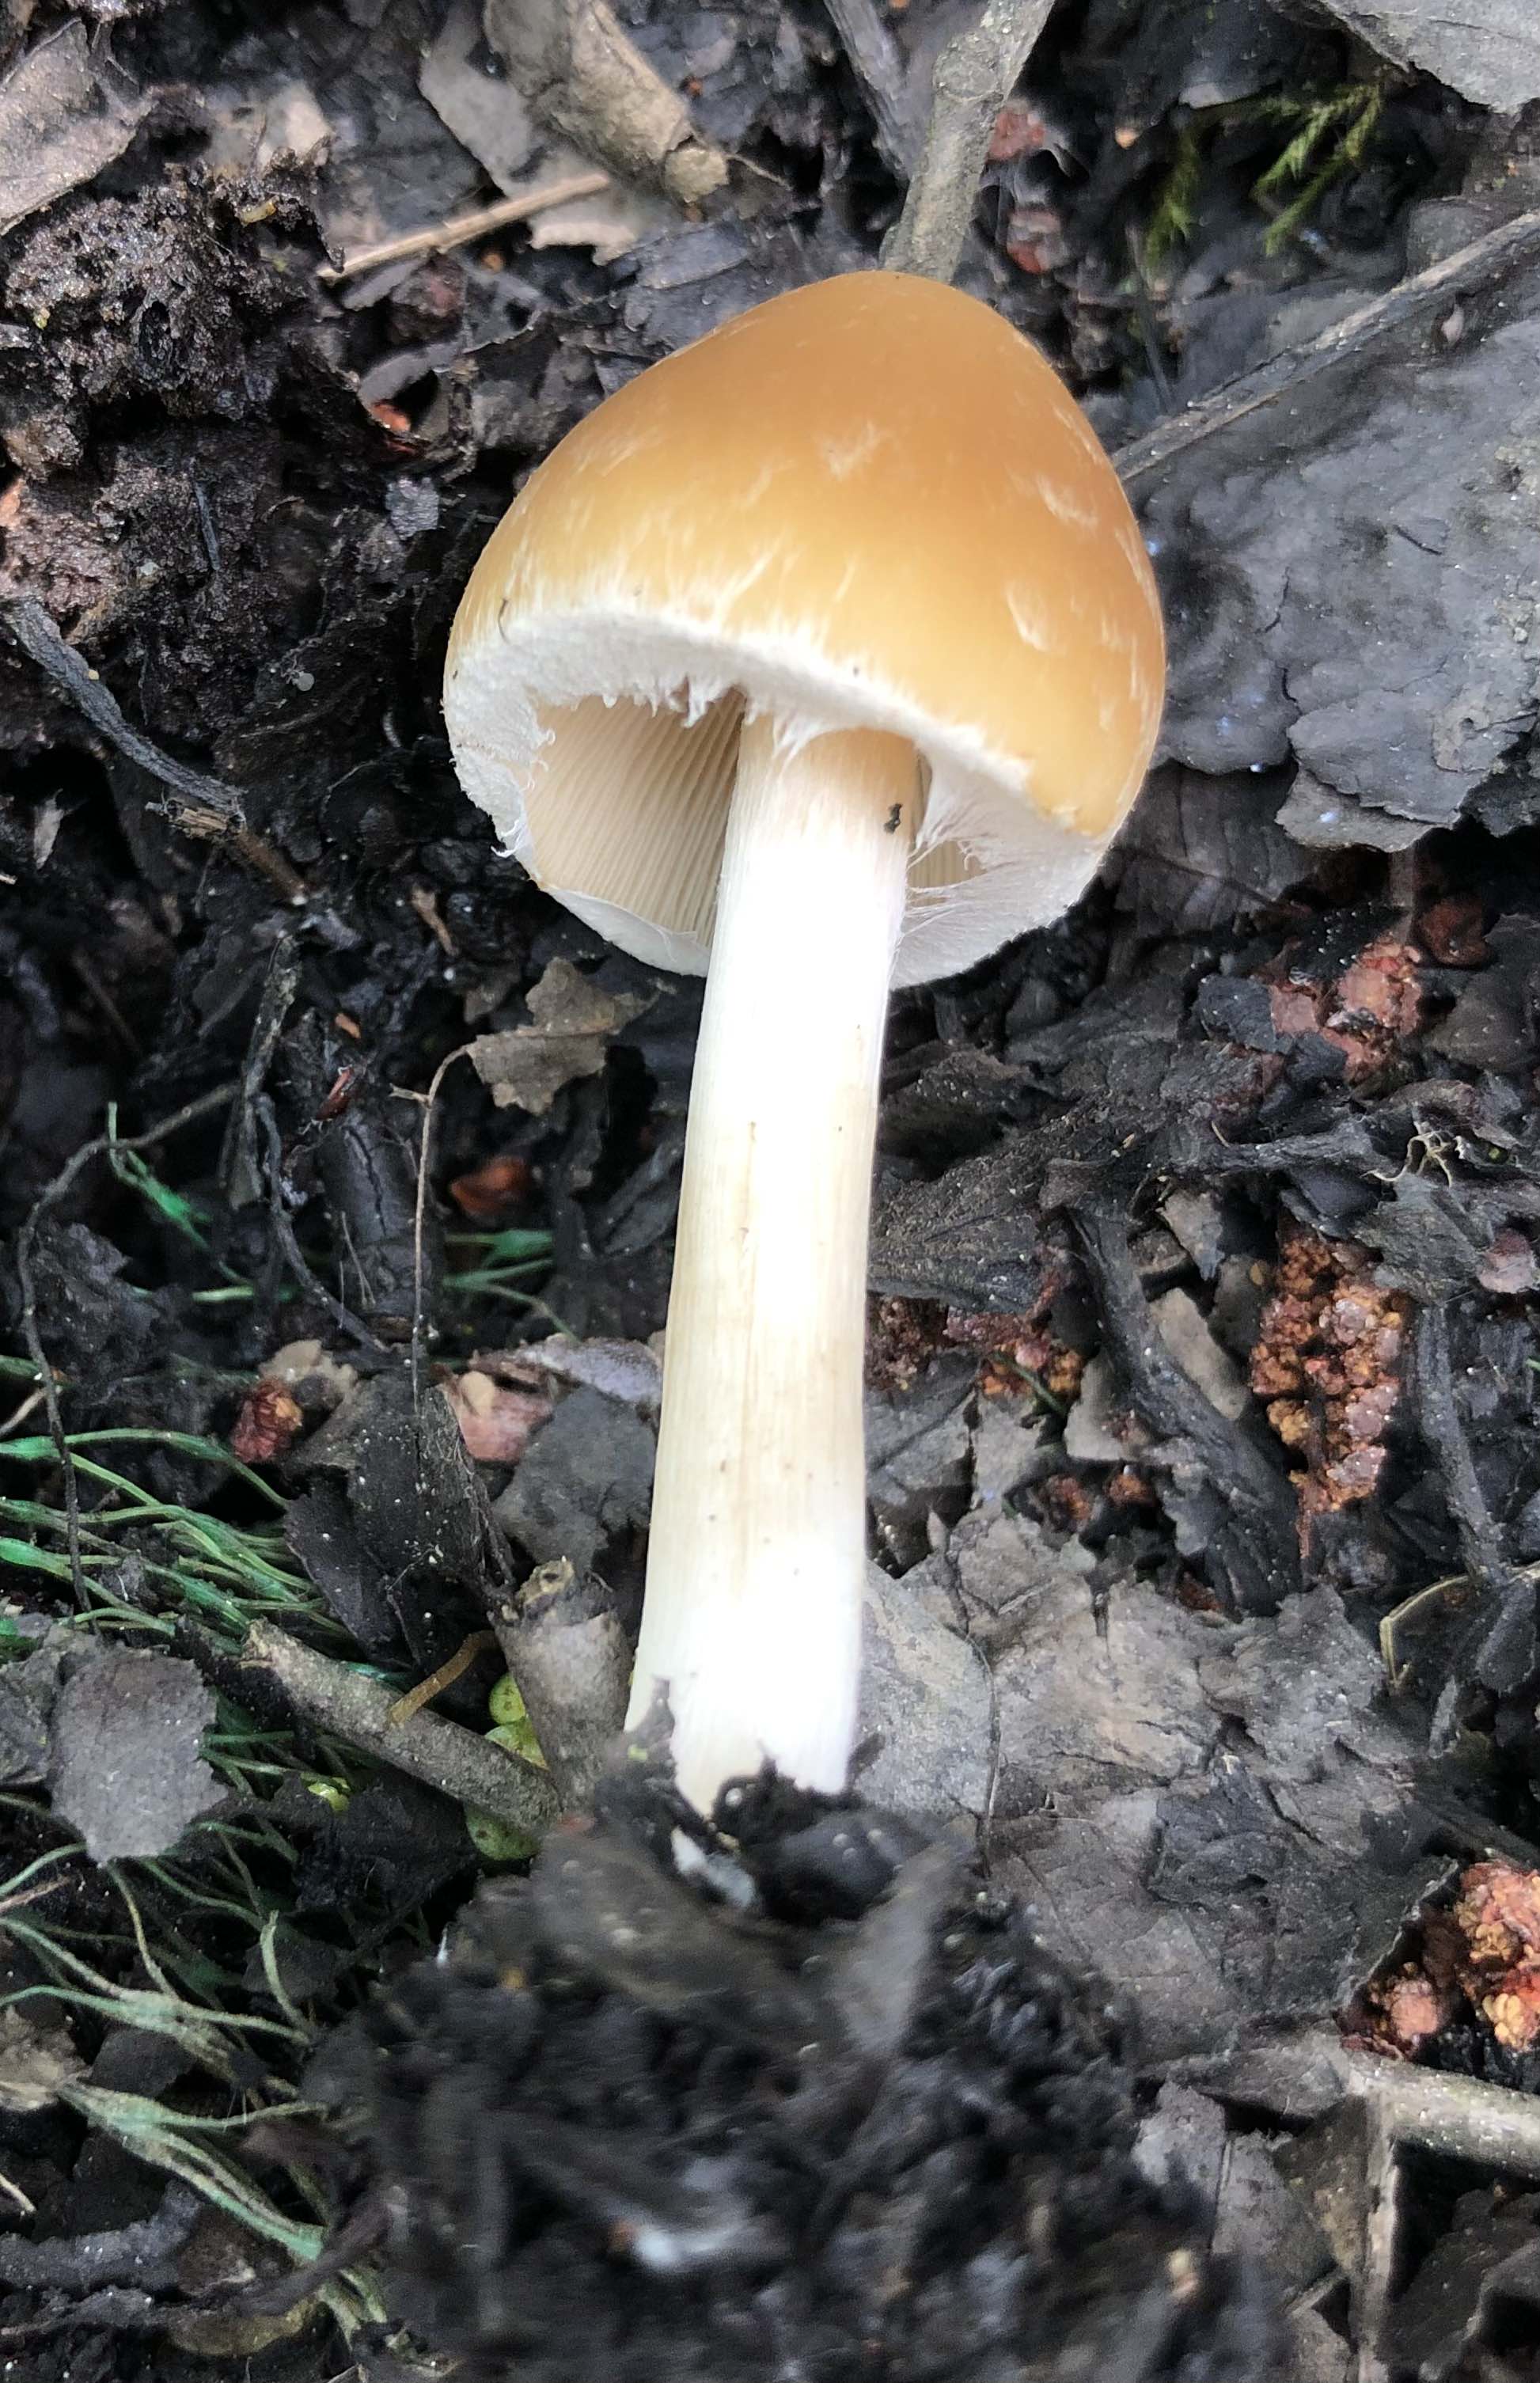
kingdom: Fungi
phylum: Basidiomycota
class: Agaricomycetes
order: Agaricales
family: Psathyrellaceae
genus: Candolleomyces
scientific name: Candolleomyces candolleanus
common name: Candolles mørkhat
